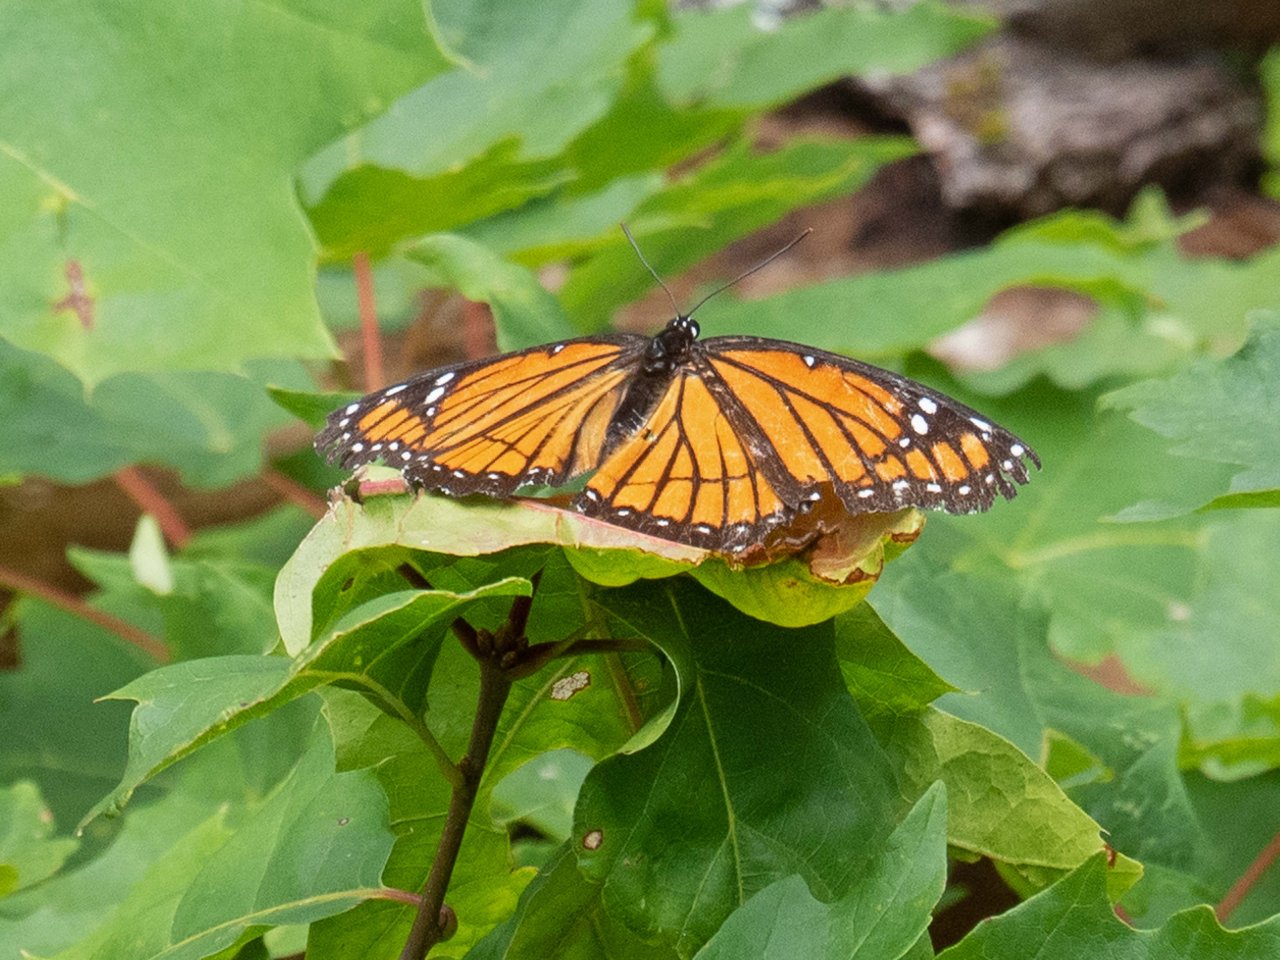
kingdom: Animalia
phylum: Arthropoda
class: Insecta
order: Lepidoptera
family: Nymphalidae
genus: Limenitis
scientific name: Limenitis archippus
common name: Viceroy
